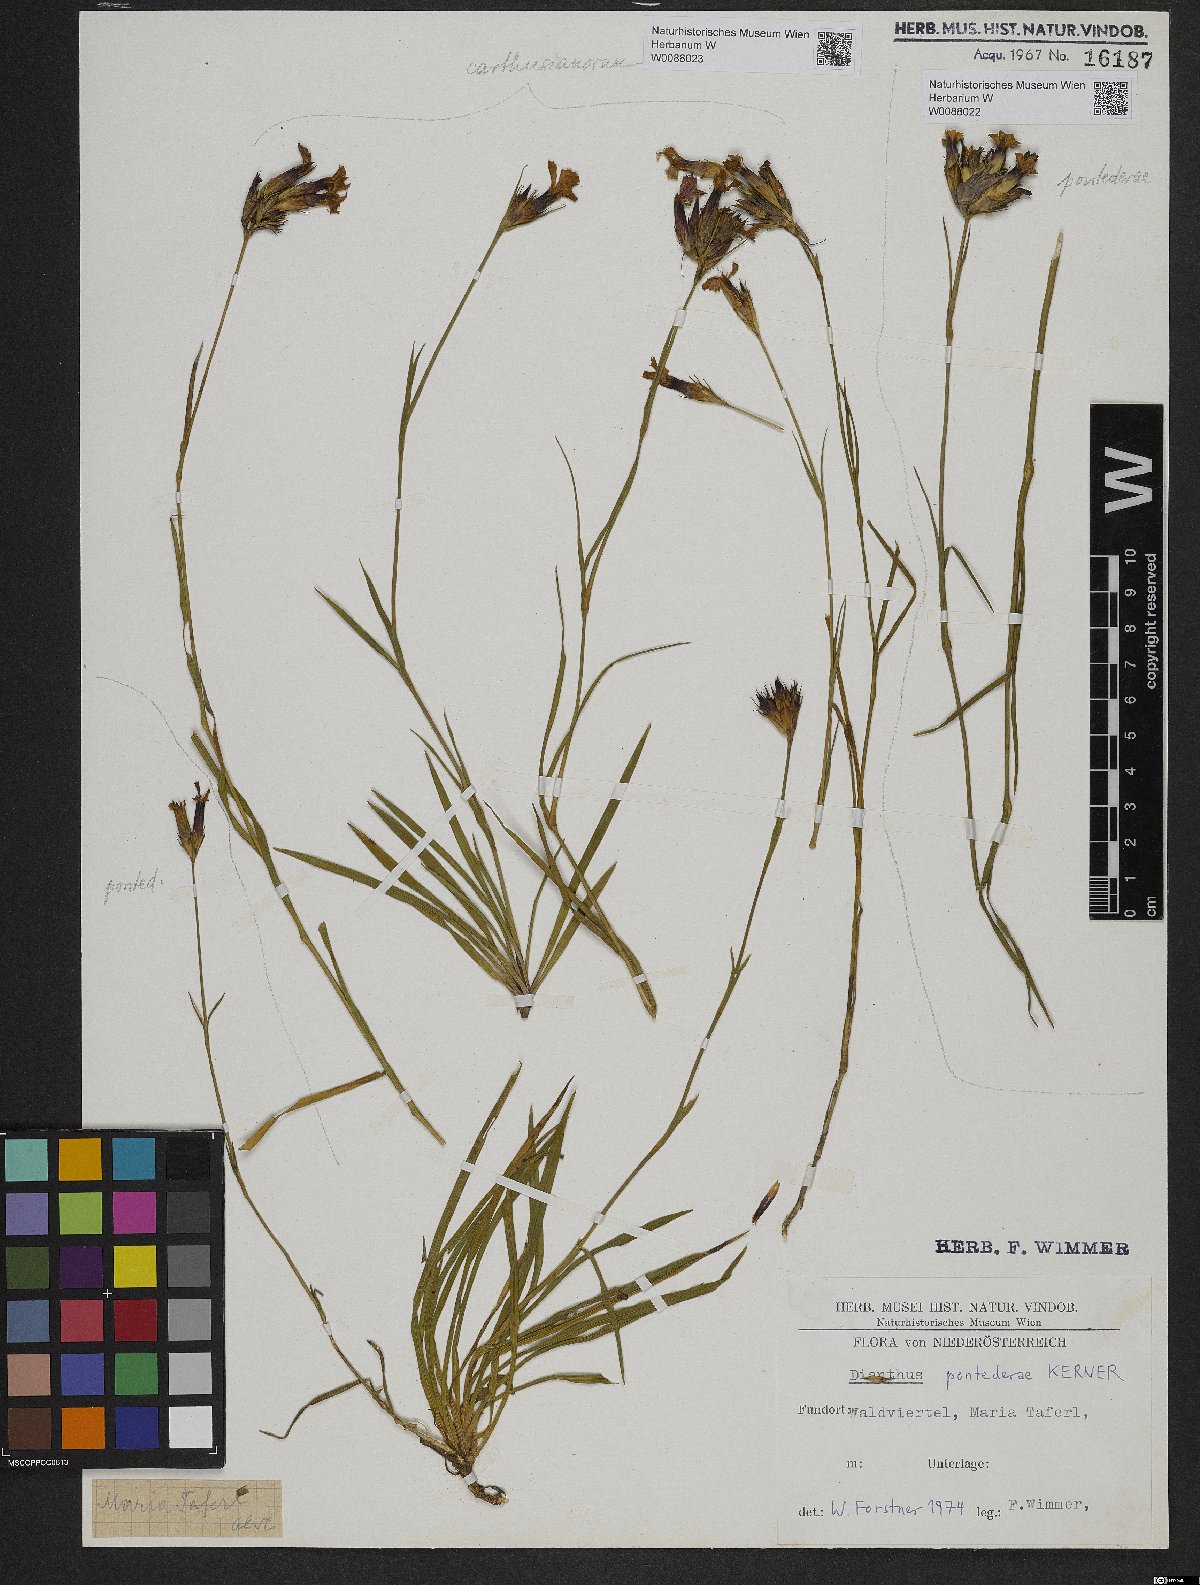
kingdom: Plantae
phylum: Tracheophyta
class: Magnoliopsida
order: Caryophyllales
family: Caryophyllaceae
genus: Dianthus
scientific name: Dianthus carthusianorum
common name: Carthusian pink
